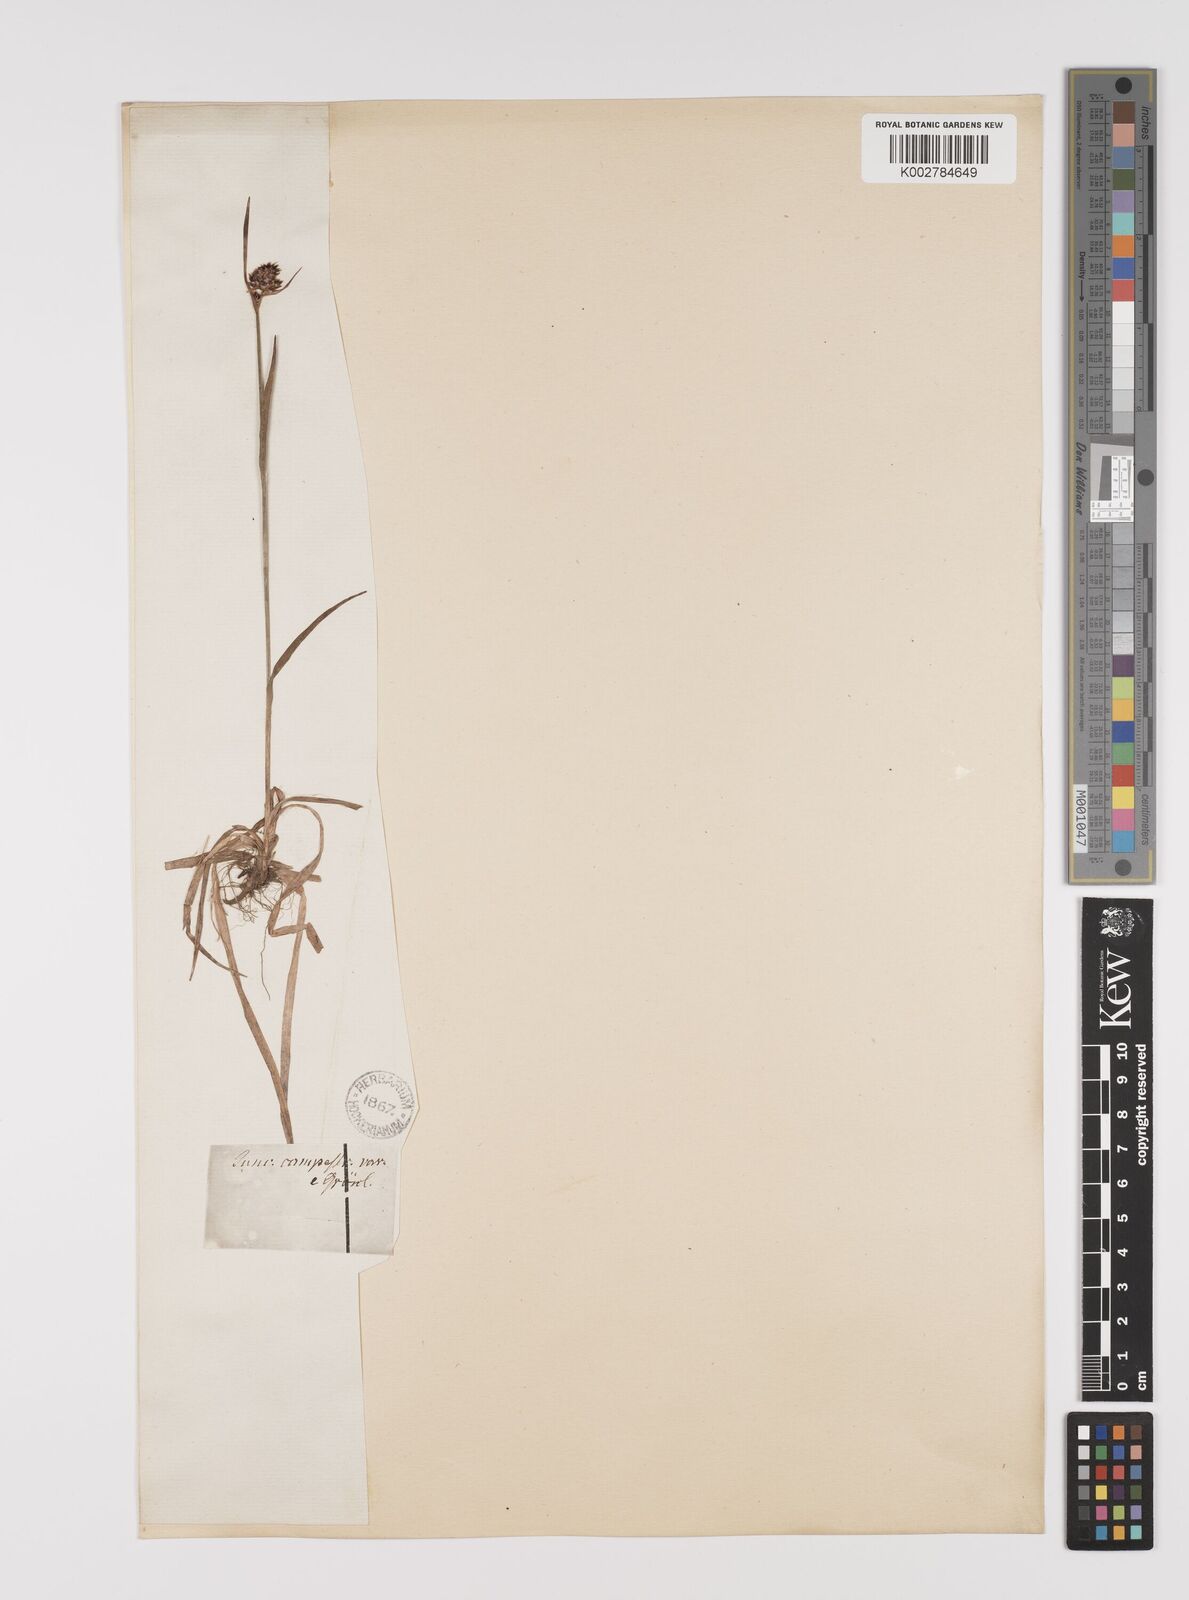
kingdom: Plantae
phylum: Tracheophyta
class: Liliopsida
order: Poales
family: Juncaceae
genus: Luzula
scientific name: Luzula campestris
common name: Field wood-rush
